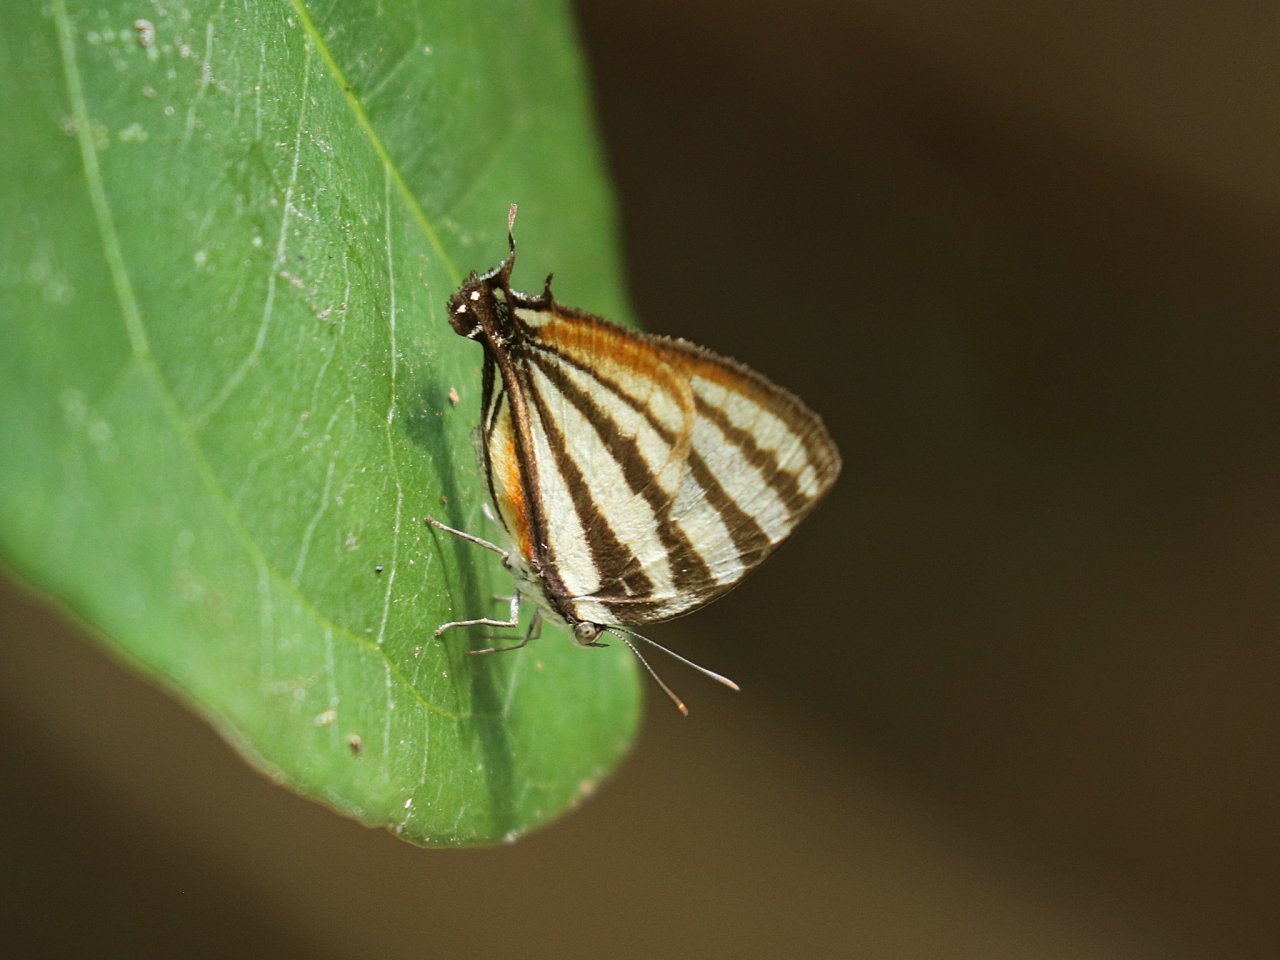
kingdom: Animalia
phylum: Arthropoda
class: Insecta
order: Lepidoptera
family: Lycaenidae
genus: Arawacus
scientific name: Arawacus togarna
